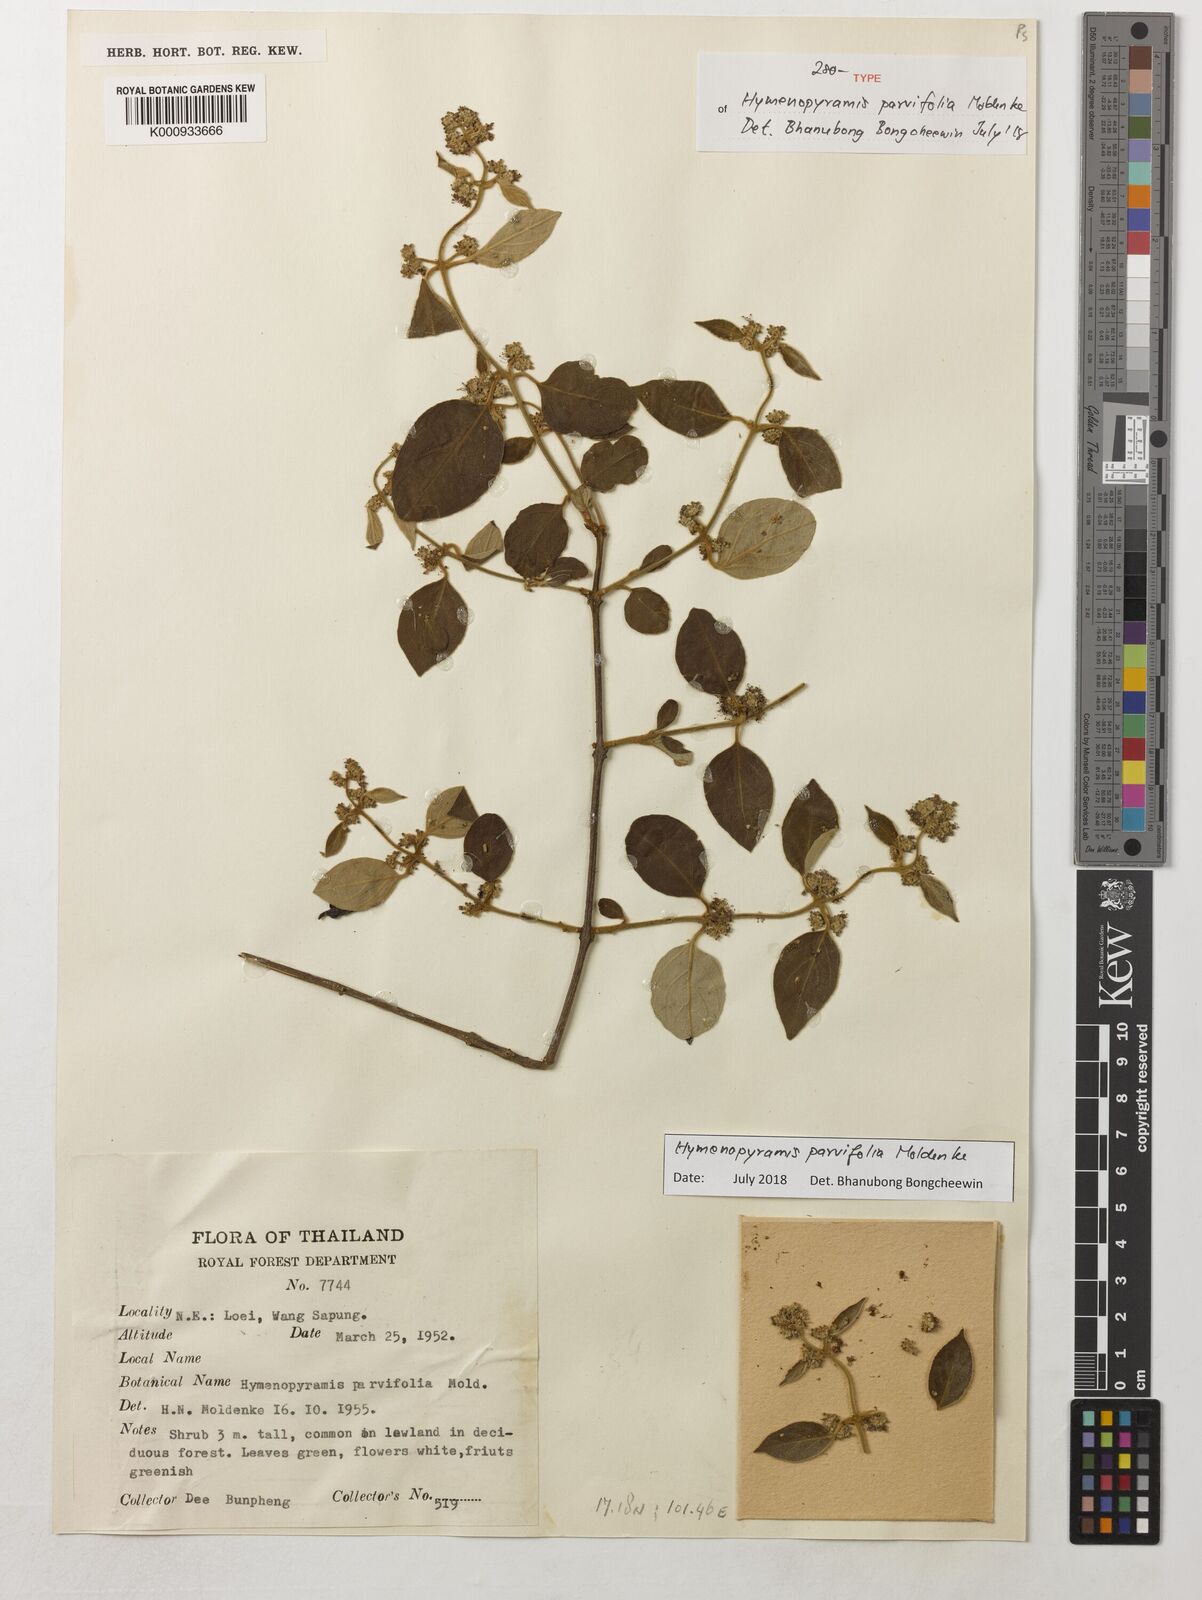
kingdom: Plantae
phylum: Tracheophyta
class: Magnoliopsida
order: Lamiales
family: Lamiaceae
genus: Hymenopyramis
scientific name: Hymenopyramis parvifolia
